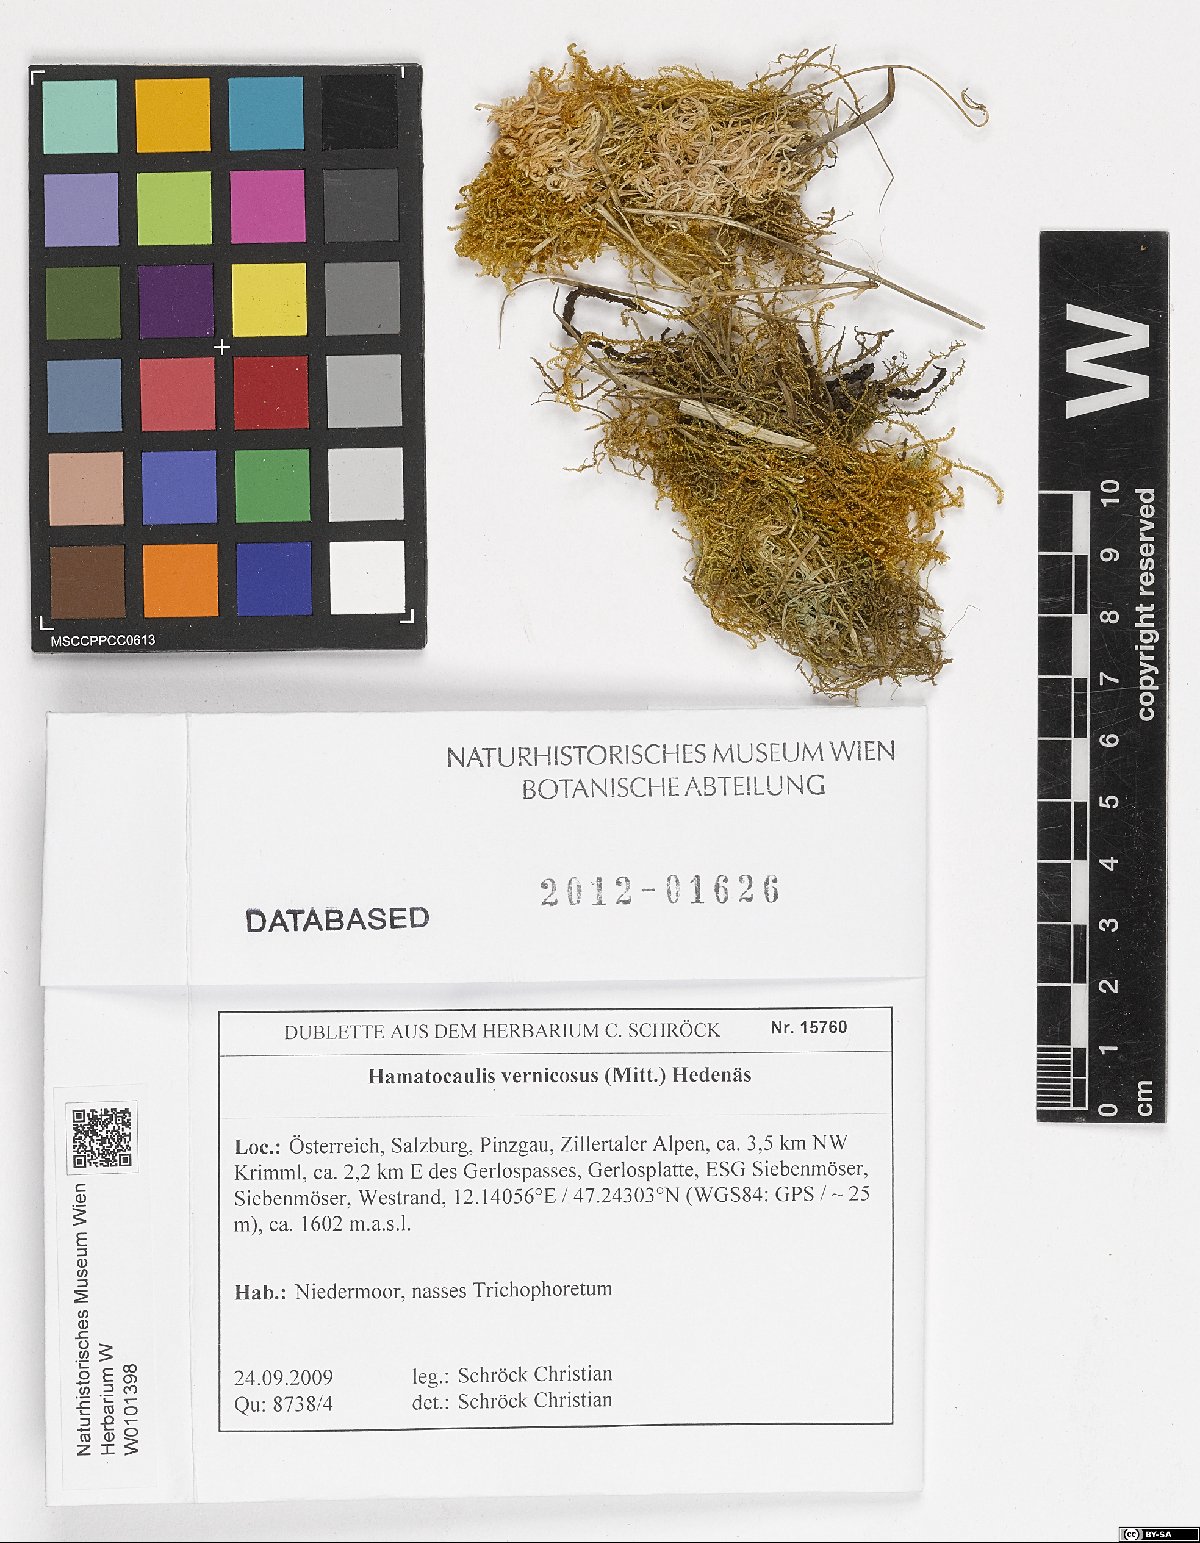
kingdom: Plantae
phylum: Bryophyta
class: Bryopsida
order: Hypnales
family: Scorpidiaceae
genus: Hamatocaulis
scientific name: Hamatocaulis vernicosus
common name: Varnished hook moss
